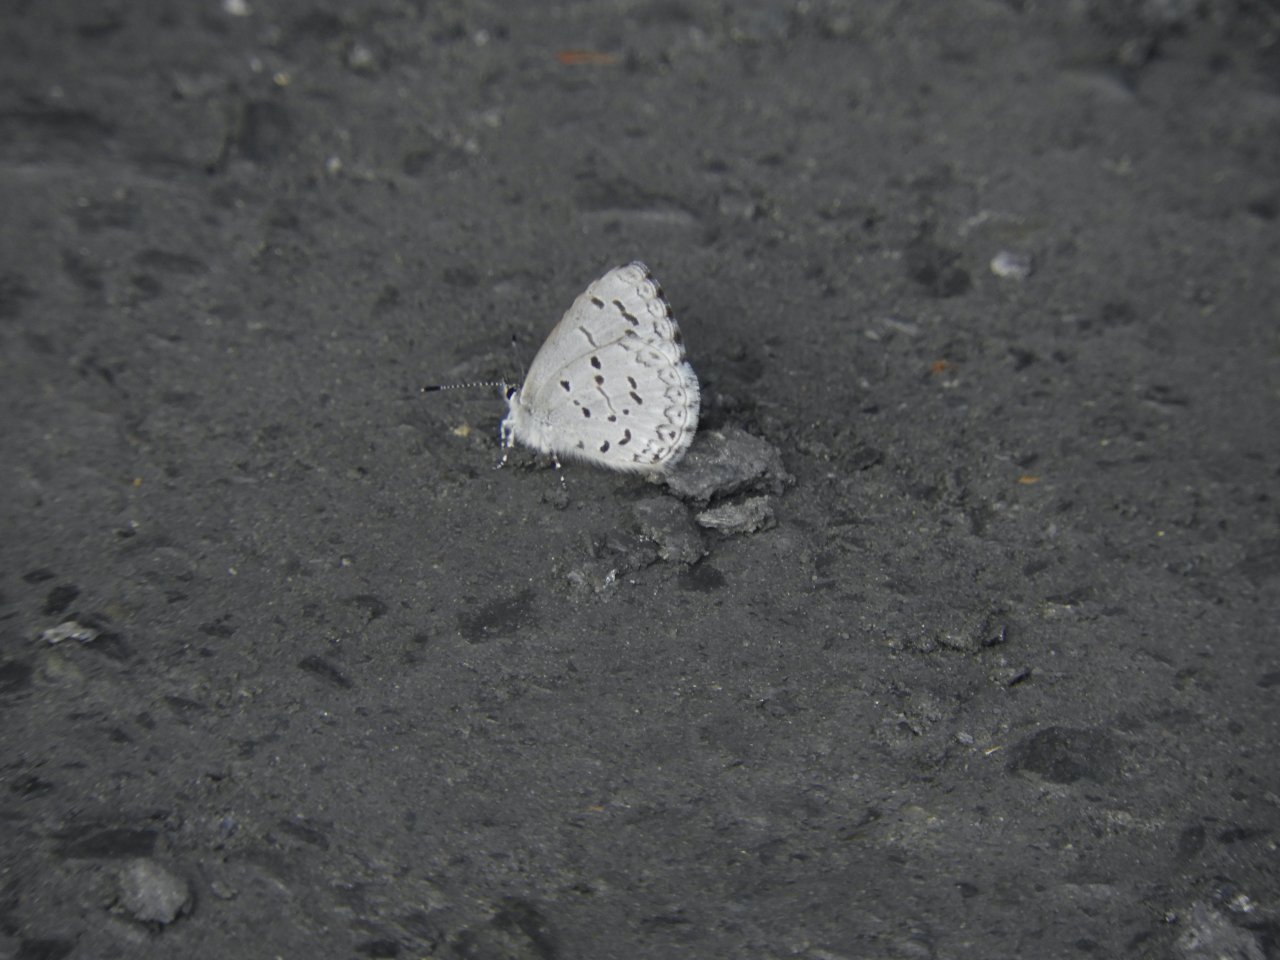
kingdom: Animalia
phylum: Arthropoda
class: Insecta
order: Lepidoptera
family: Lycaenidae
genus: Celastrina
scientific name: Celastrina lucia
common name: Northern Spring Azure
